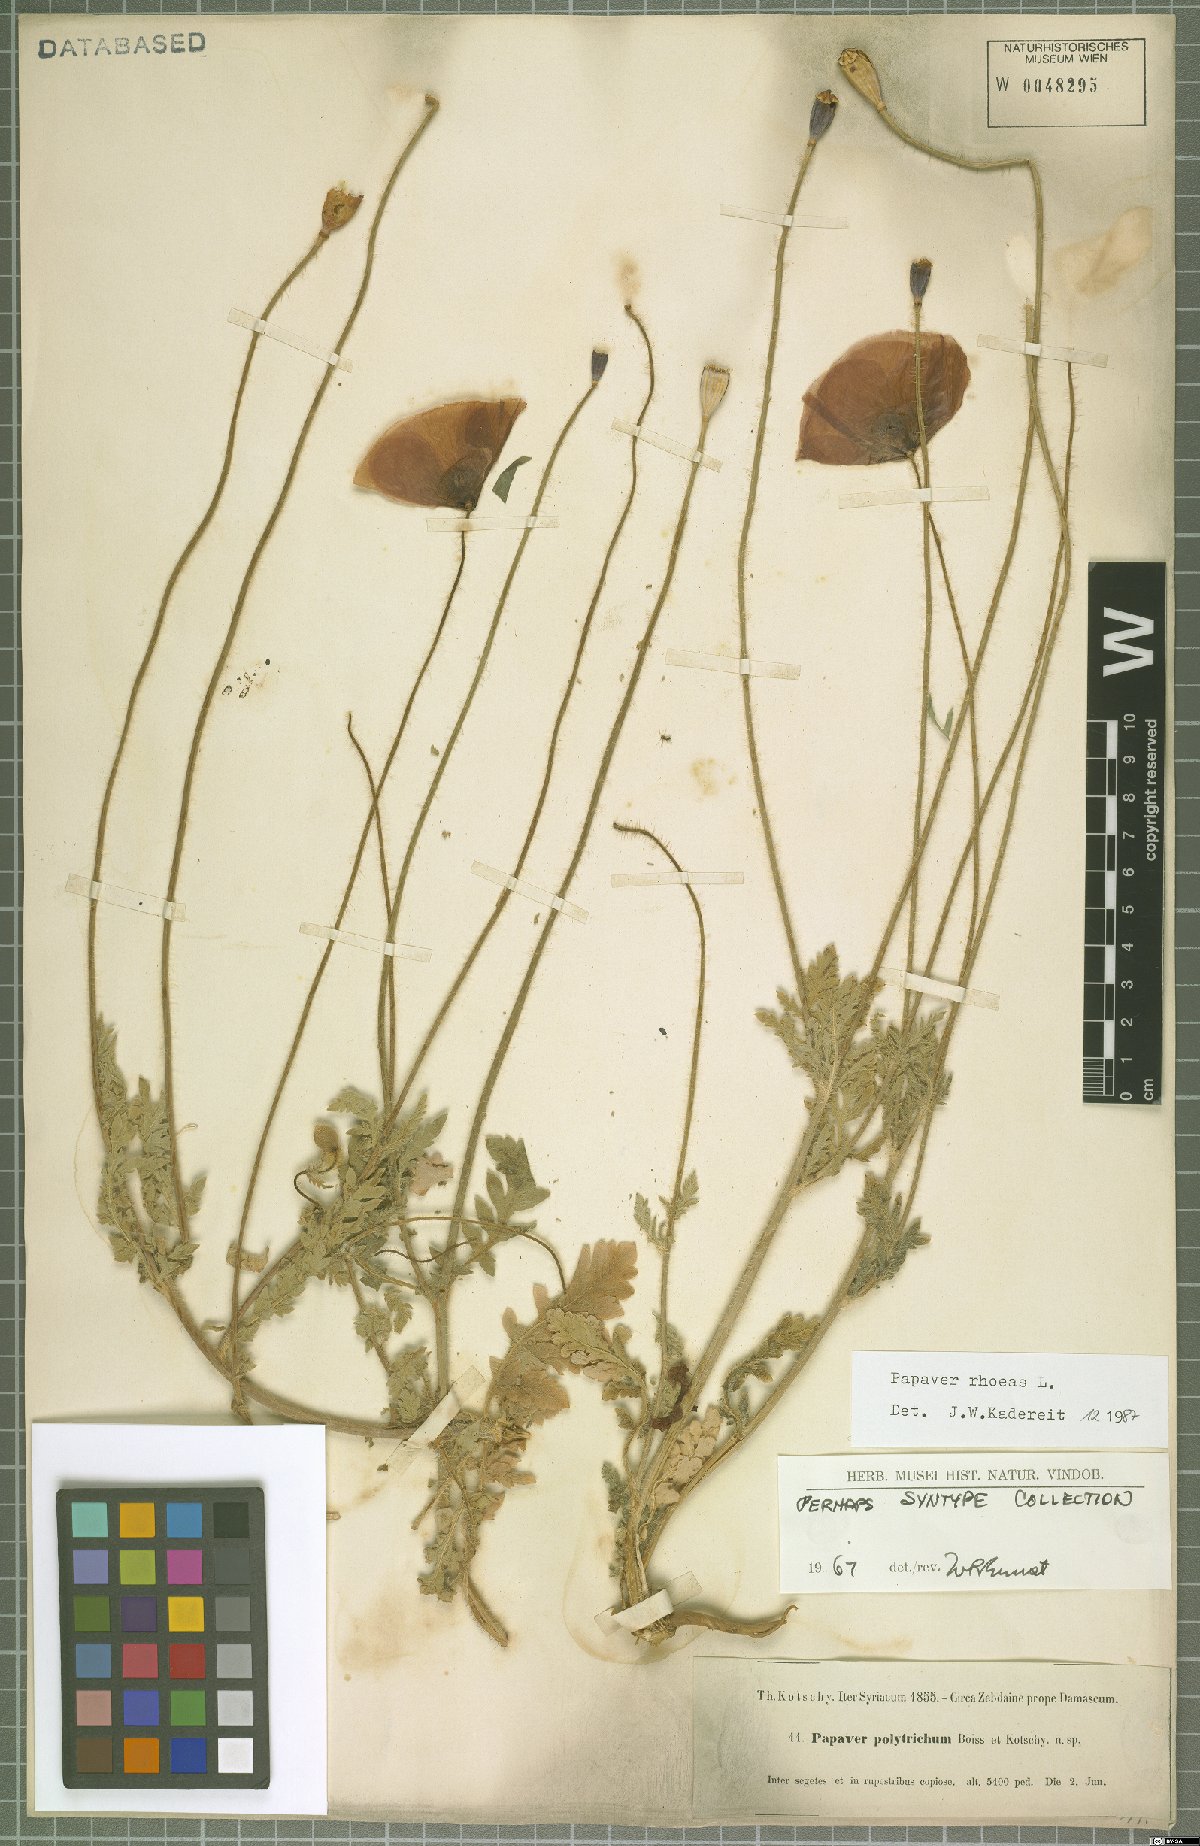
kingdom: Plantae
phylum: Tracheophyta
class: Magnoliopsida
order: Ranunculales
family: Papaveraceae
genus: Papaver
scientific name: Papaver rhoeas
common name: Corn poppy
